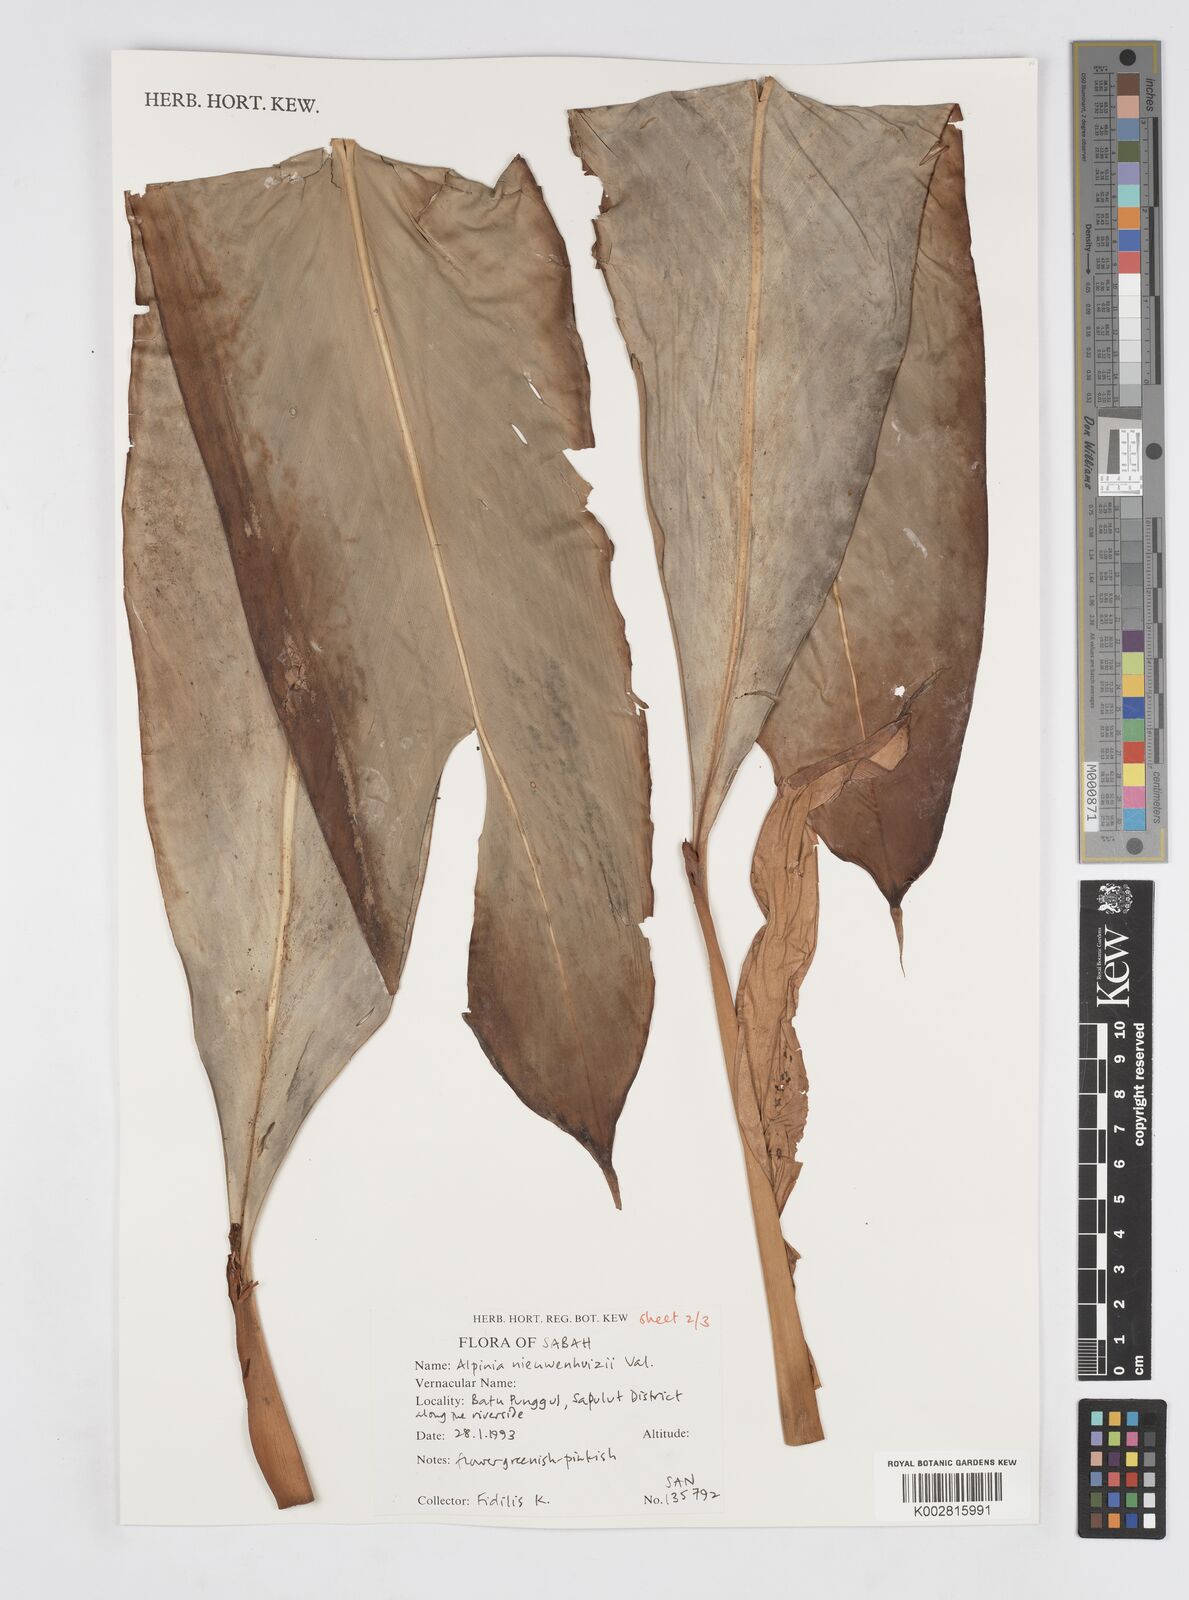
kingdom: Plantae
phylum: Tracheophyta
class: Liliopsida
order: Zingiberales
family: Zingiberaceae
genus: Alpinia
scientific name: Alpinia nieuwenhuizii
